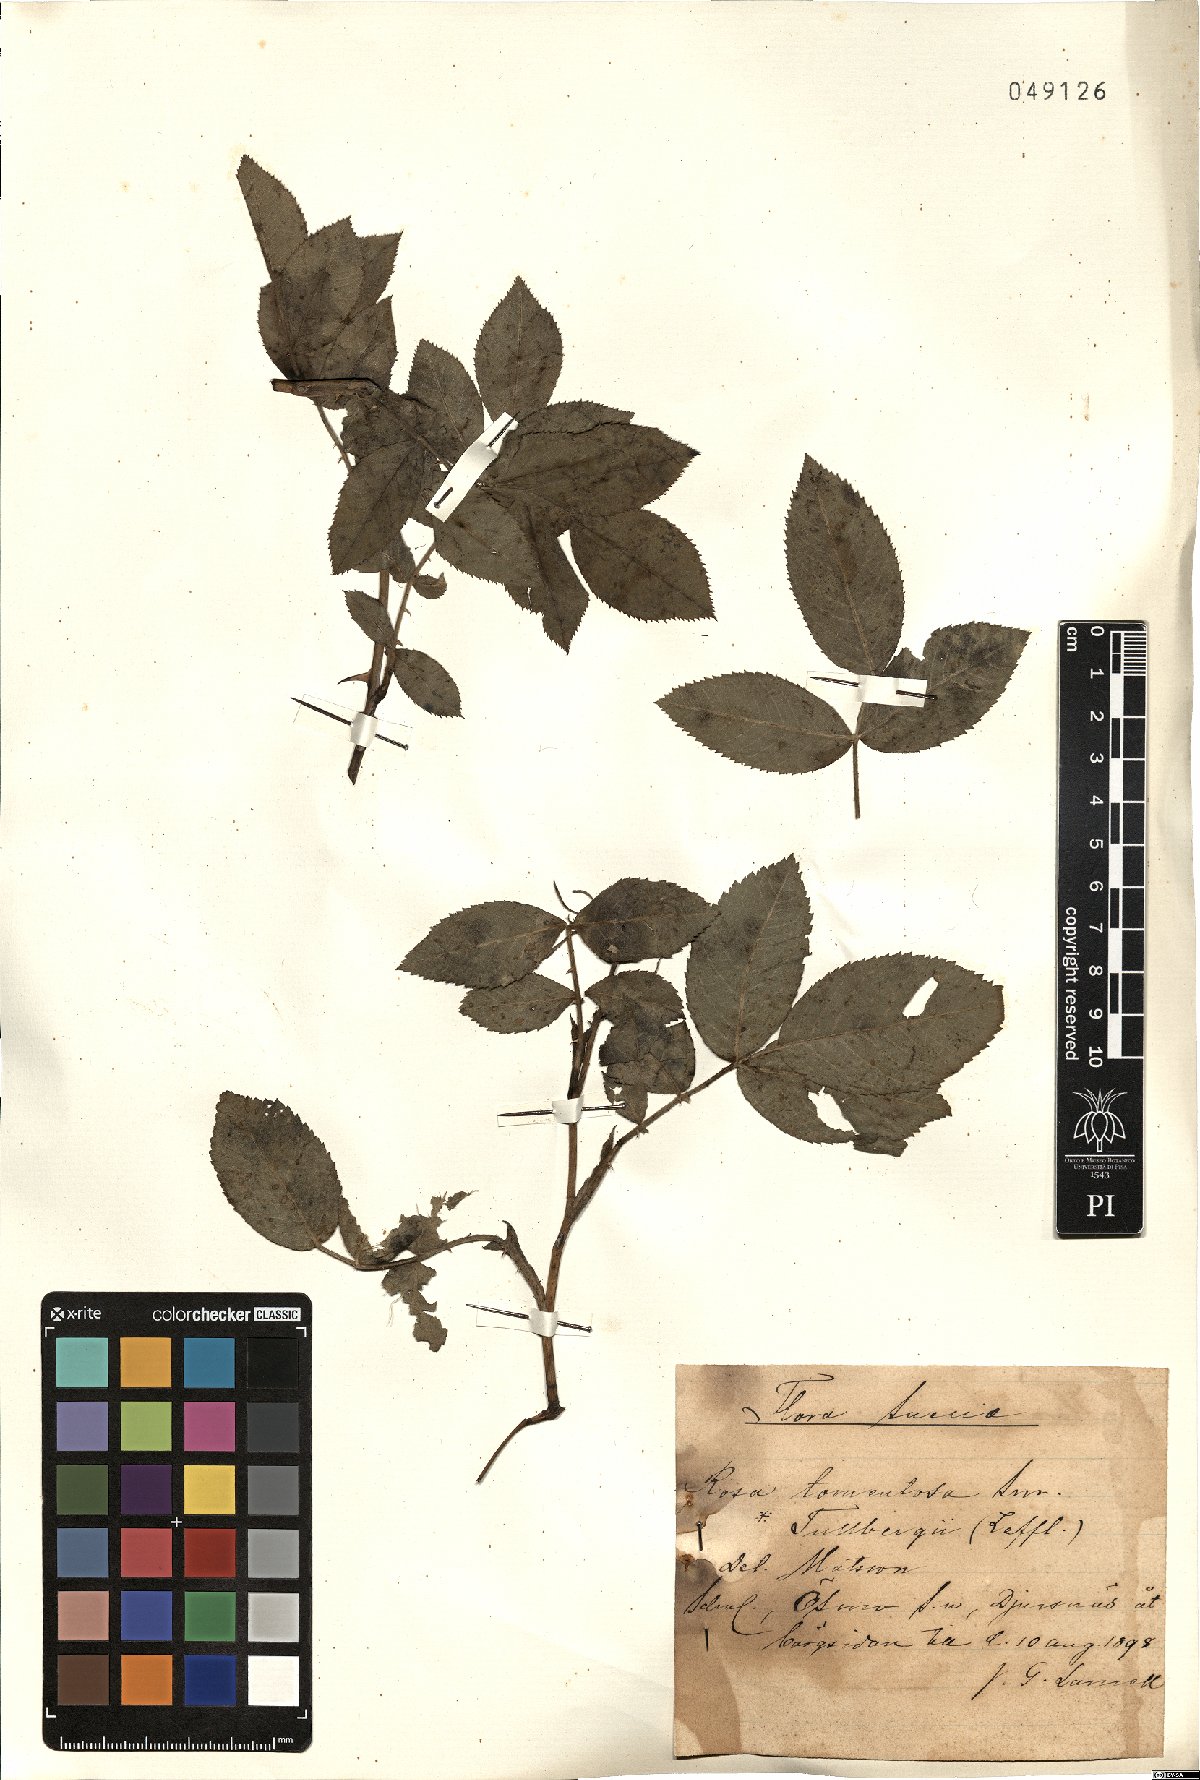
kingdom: Plantae
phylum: Tracheophyta
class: Magnoliopsida
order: Rosales
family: Rosaceae
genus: Rosa
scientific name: Rosa tomentosa
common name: Downy rose
